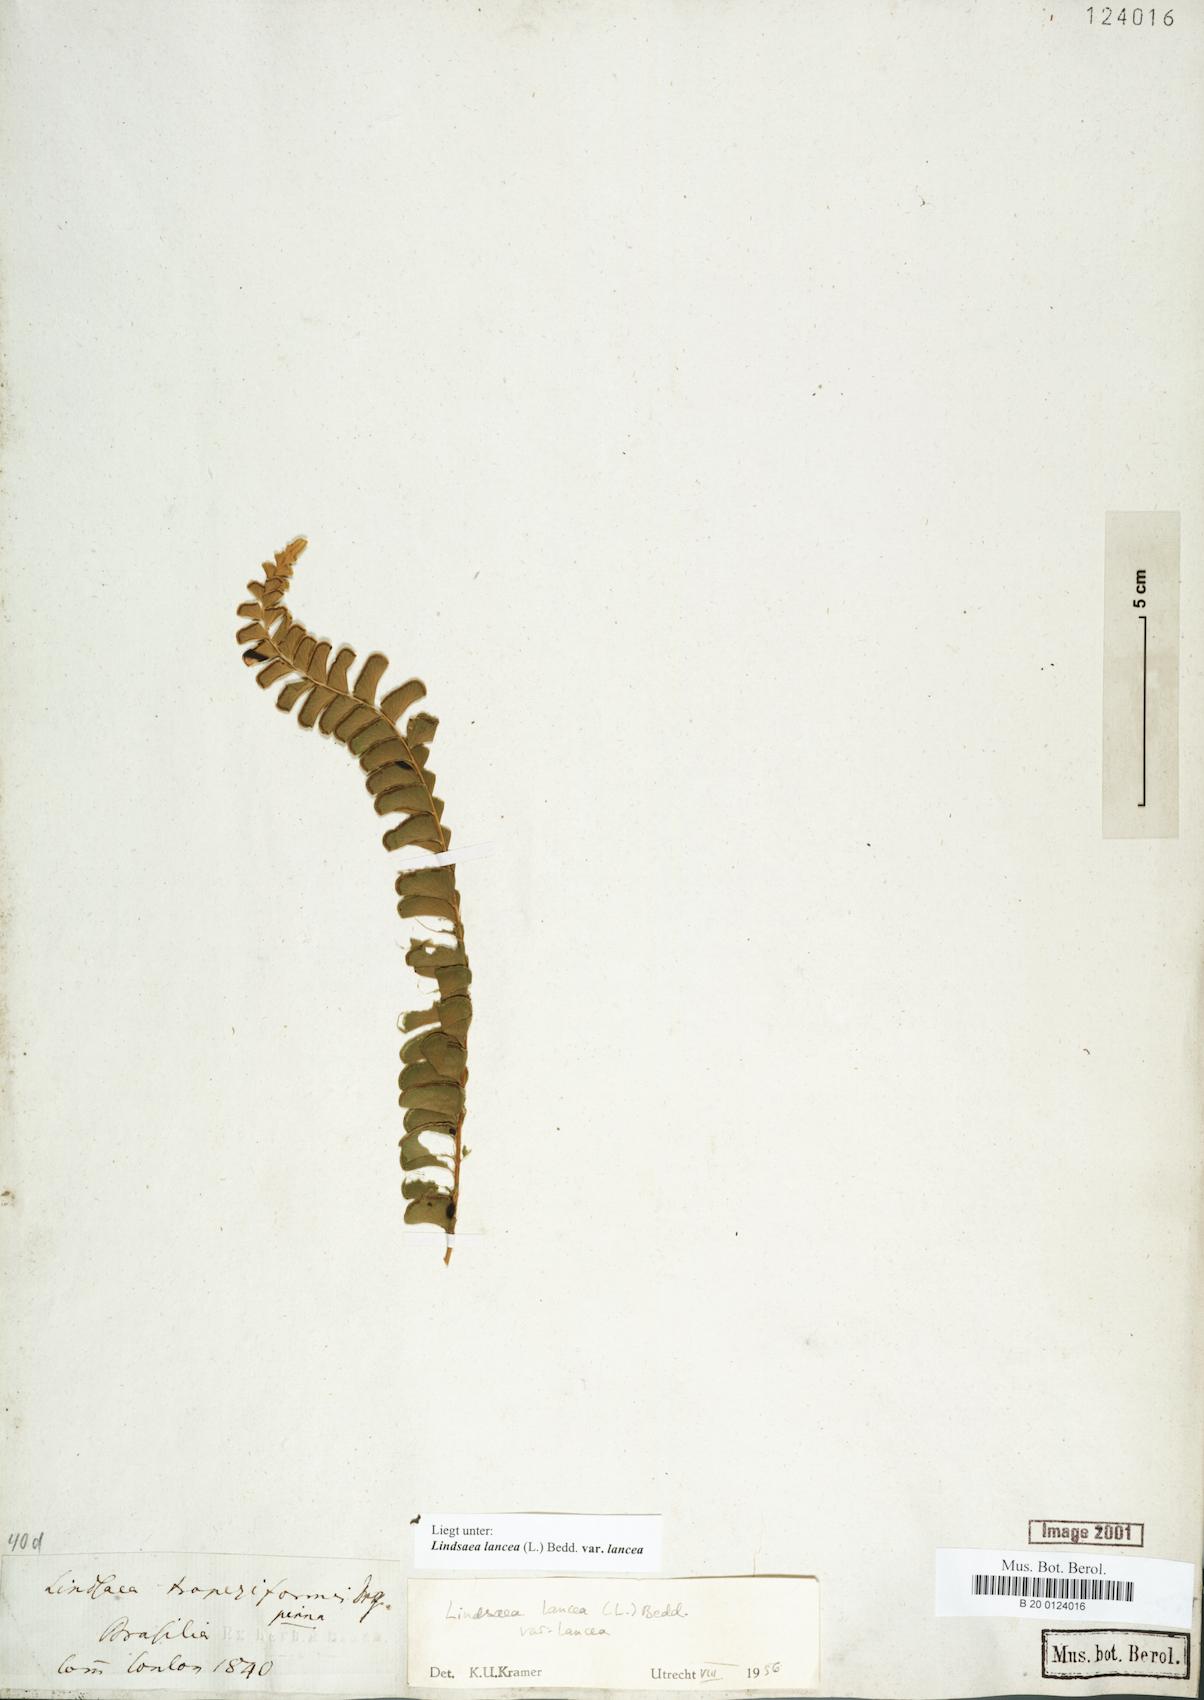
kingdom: Plantae
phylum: Tracheophyta
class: Polypodiopsida
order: Polypodiales
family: Lindsaeaceae
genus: Lindsaea
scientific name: Lindsaea lancea
